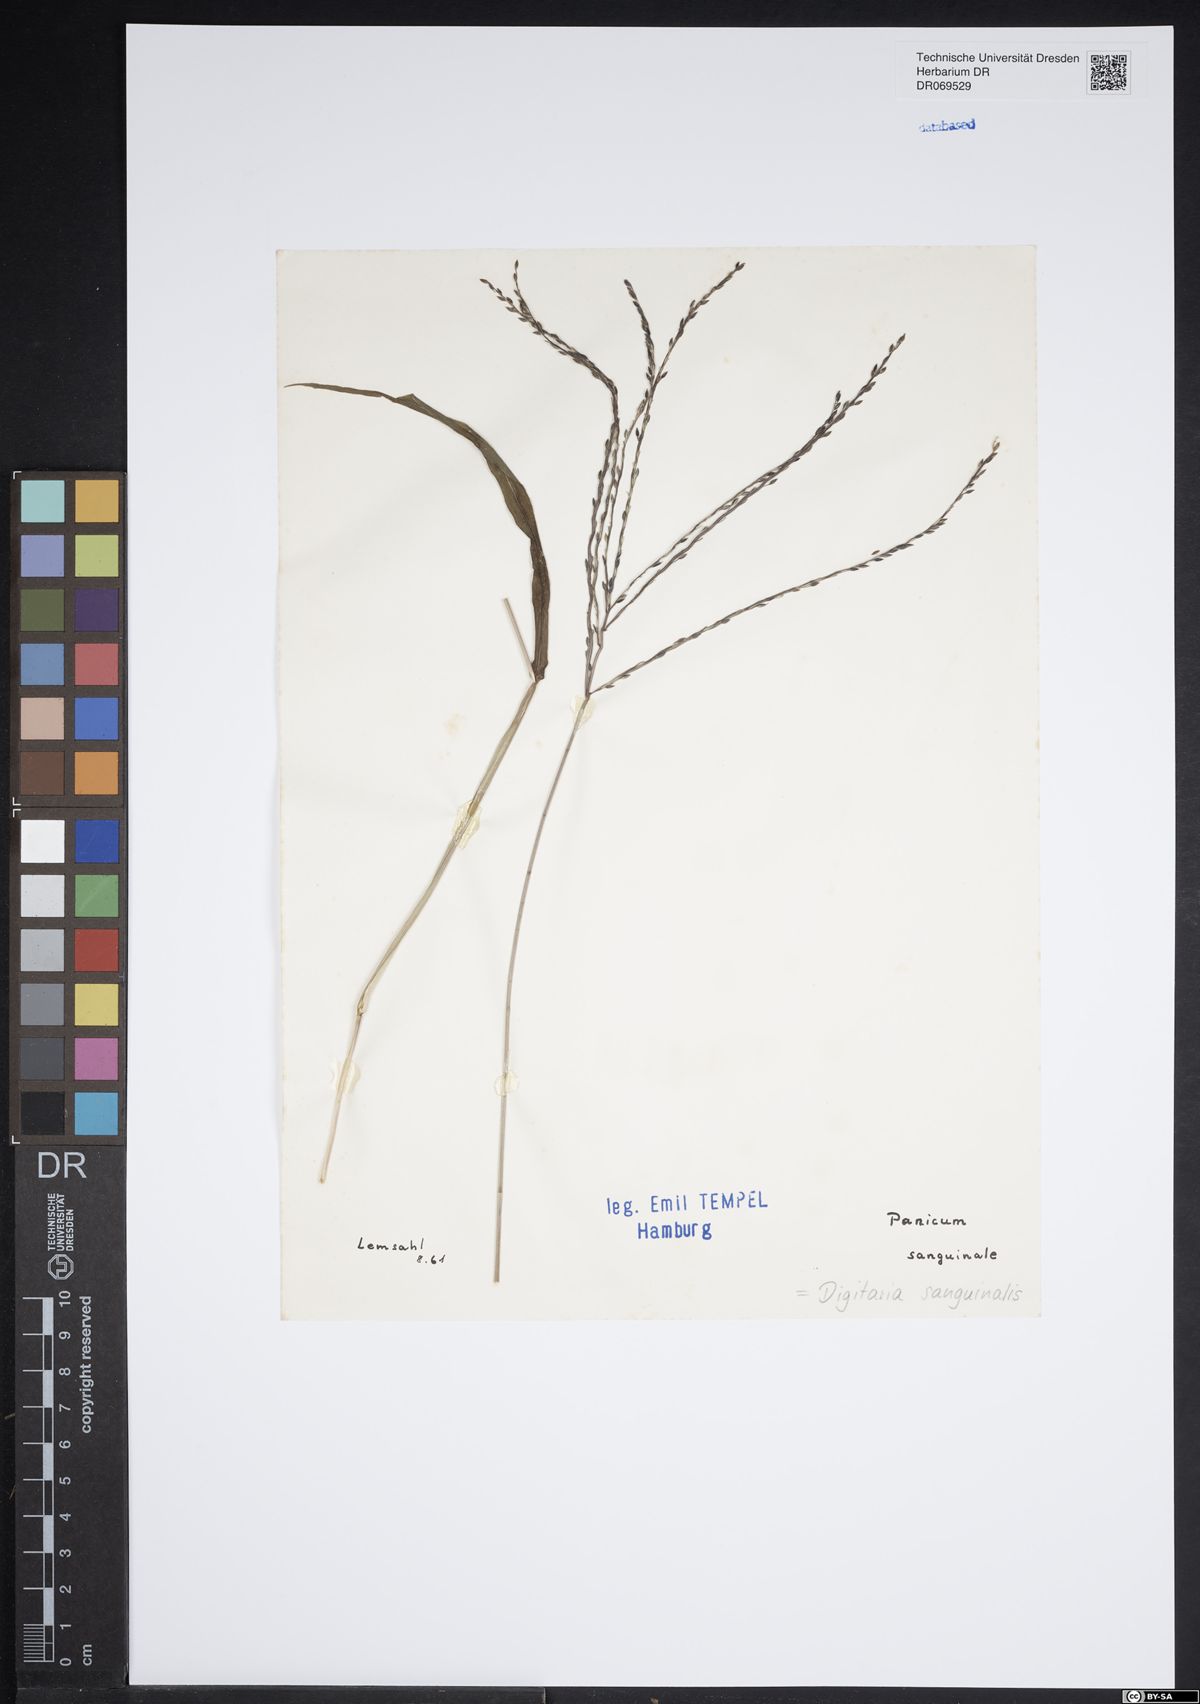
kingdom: Plantae
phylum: Tracheophyta
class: Liliopsida
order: Poales
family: Poaceae
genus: Digitaria
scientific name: Digitaria sanguinalis
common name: Hairy crabgrass
